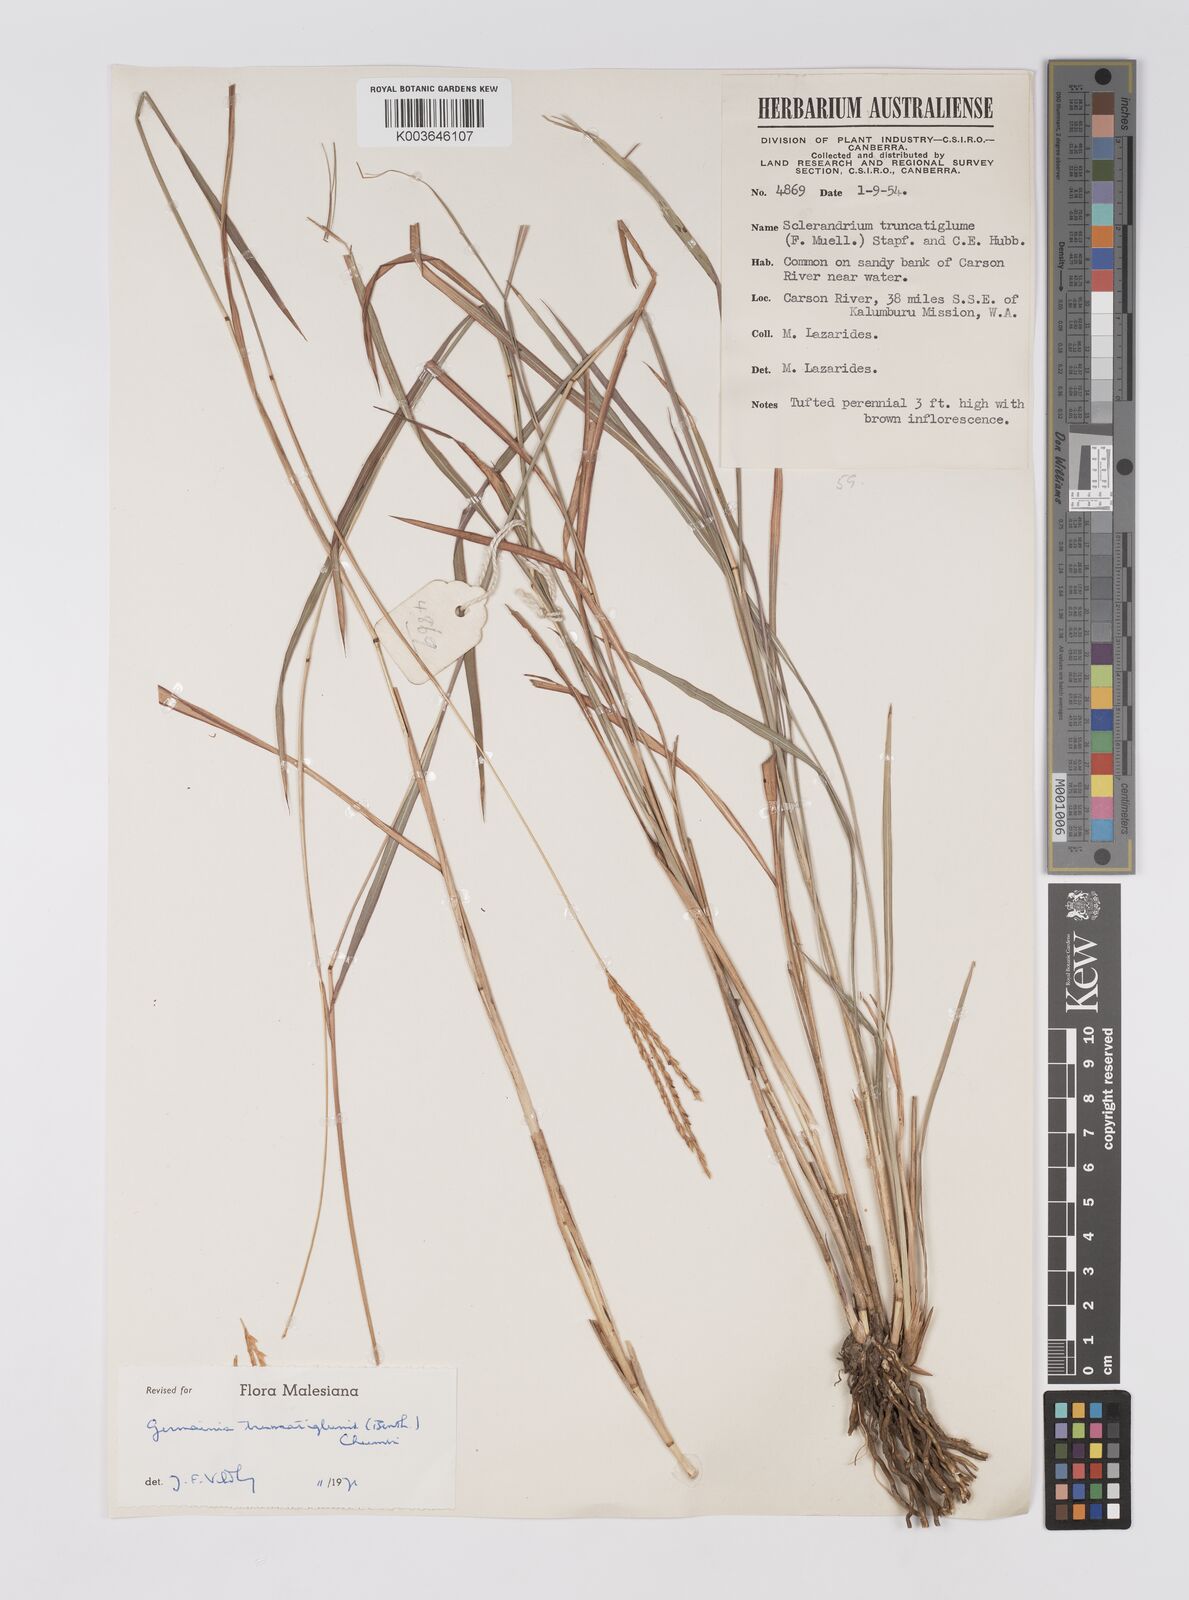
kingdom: Plantae
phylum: Tracheophyta
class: Liliopsida
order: Poales
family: Poaceae
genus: Germainia
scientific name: Germainia truncatiglumis
